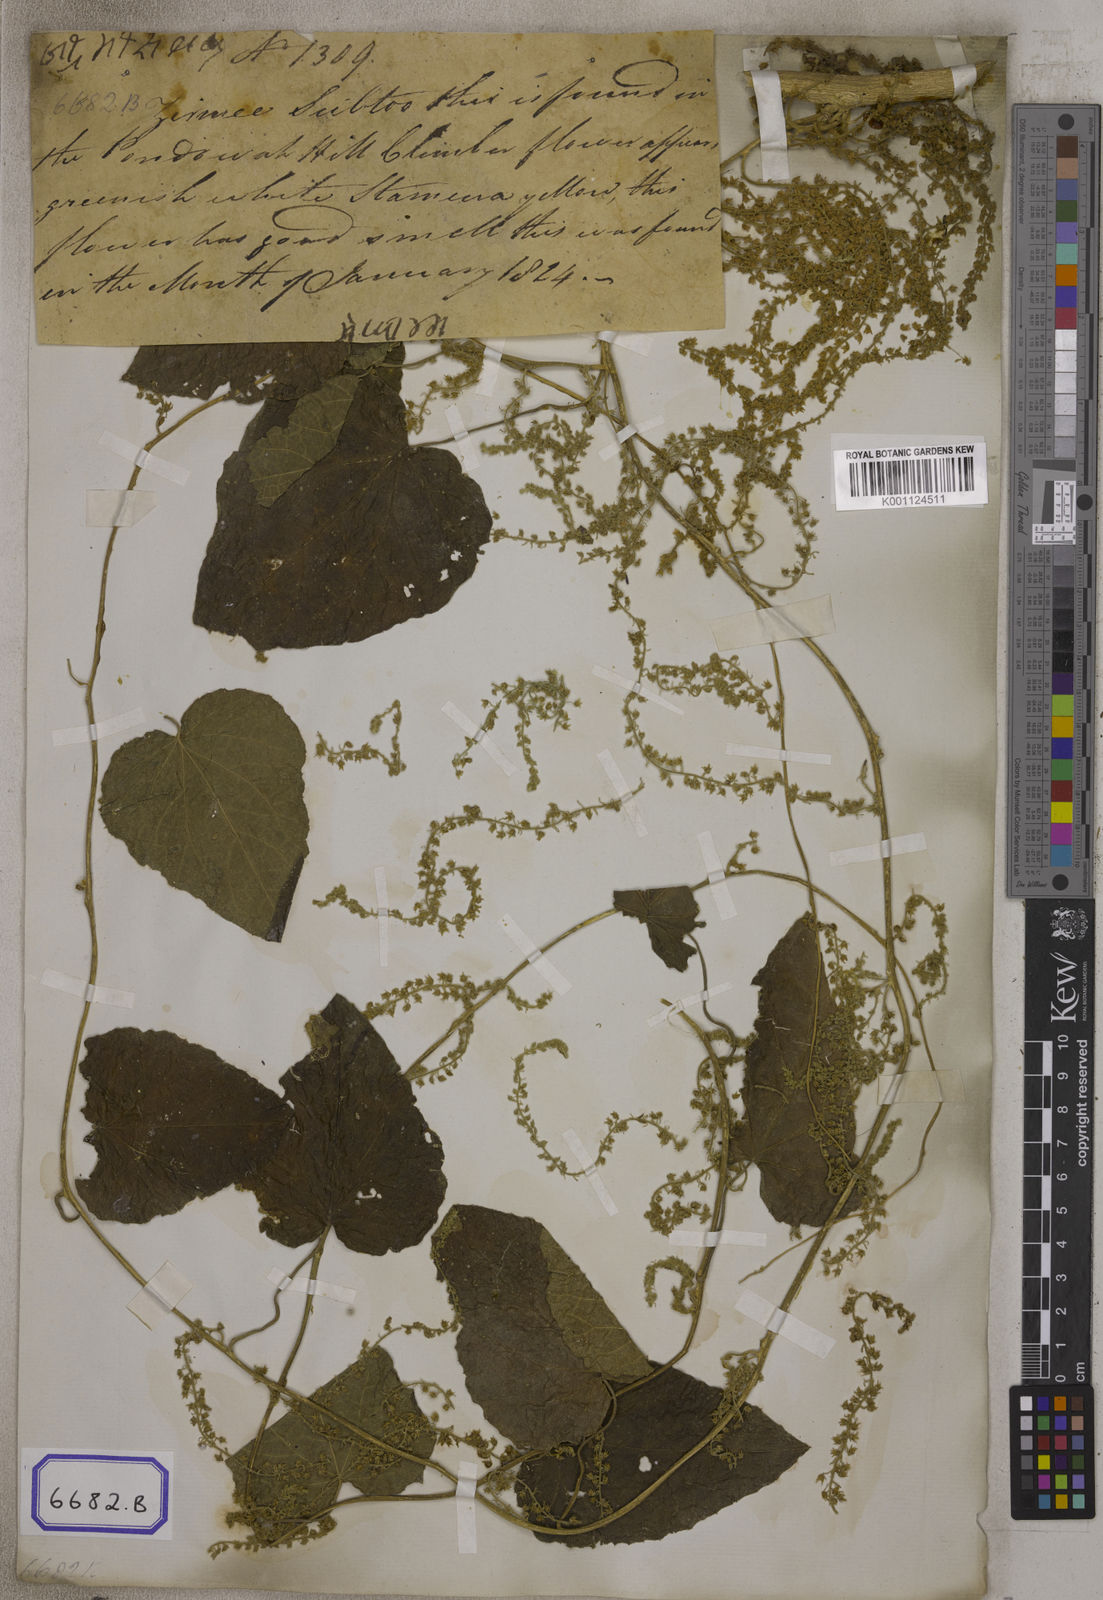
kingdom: Plantae
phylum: Tracheophyta
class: Magnoliopsida
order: Cucurbitales
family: Cucurbitaceae
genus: Sicyos
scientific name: Sicyos
